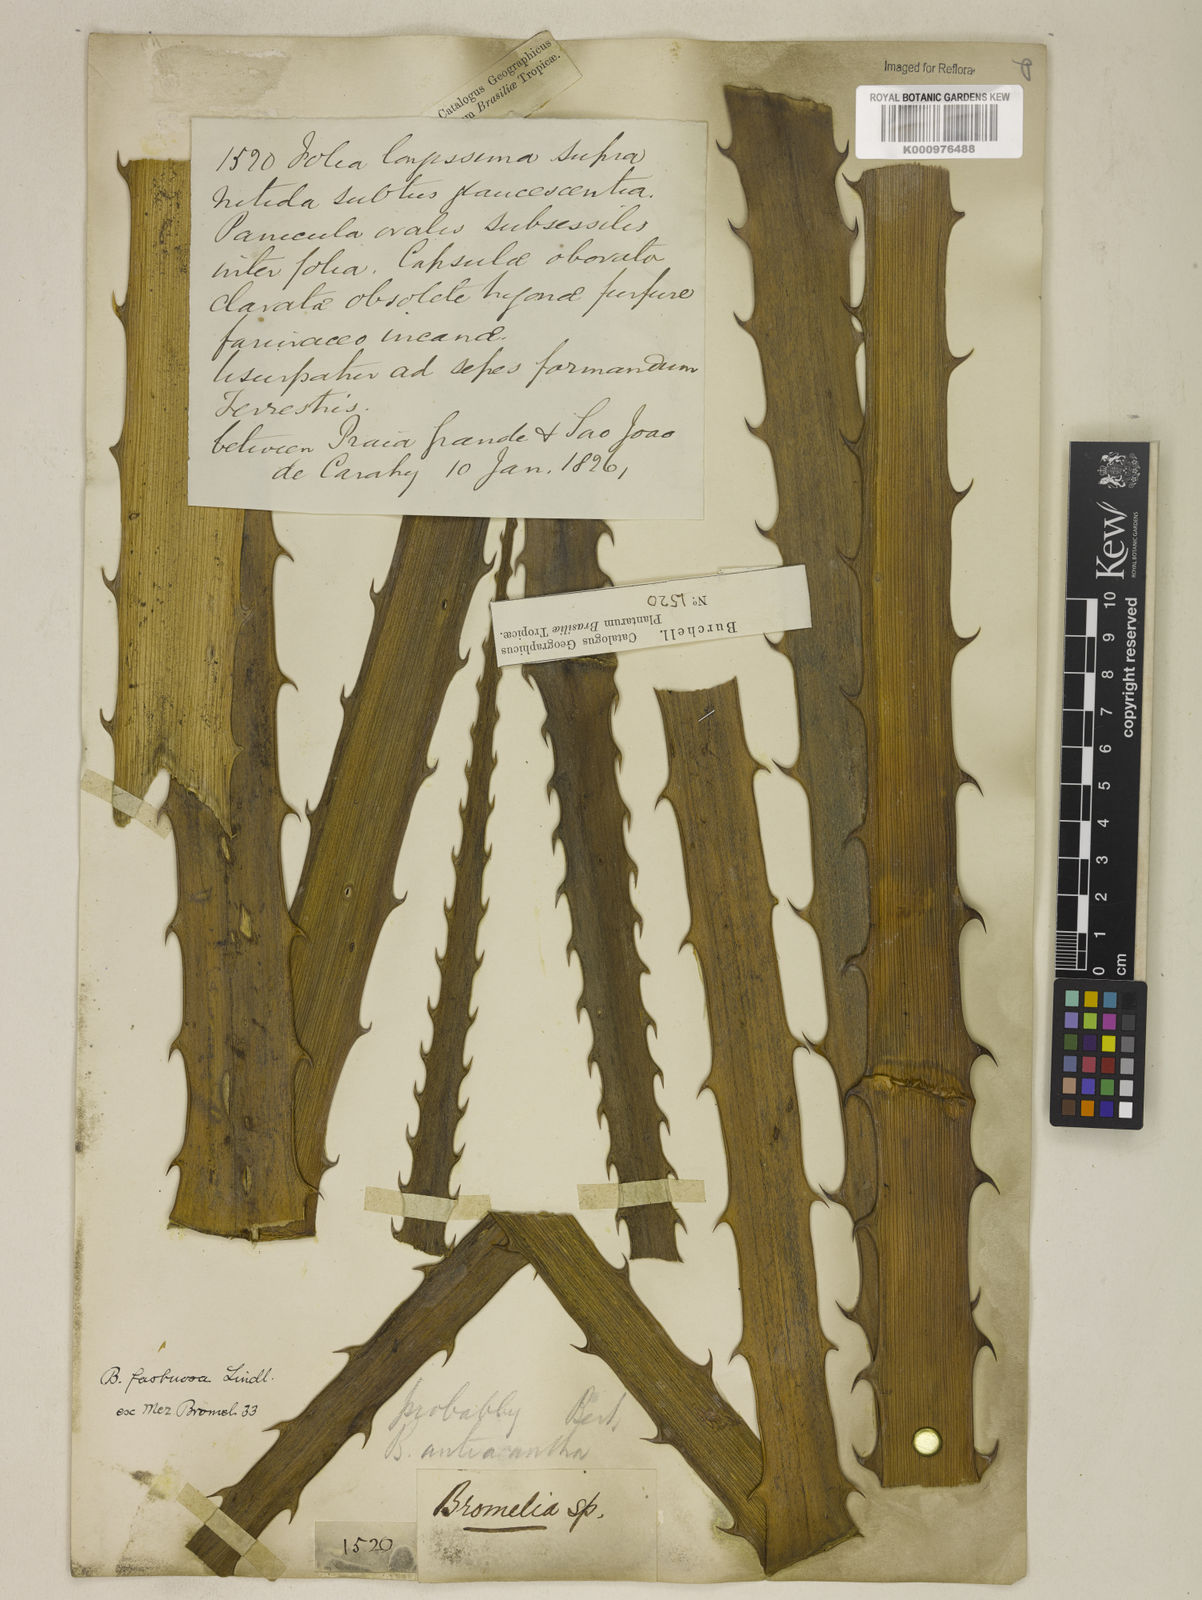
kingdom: Plantae
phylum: Tracheophyta
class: Liliopsida
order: Poales
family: Bromeliaceae
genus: Bromelia
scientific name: Bromelia antiacantha
